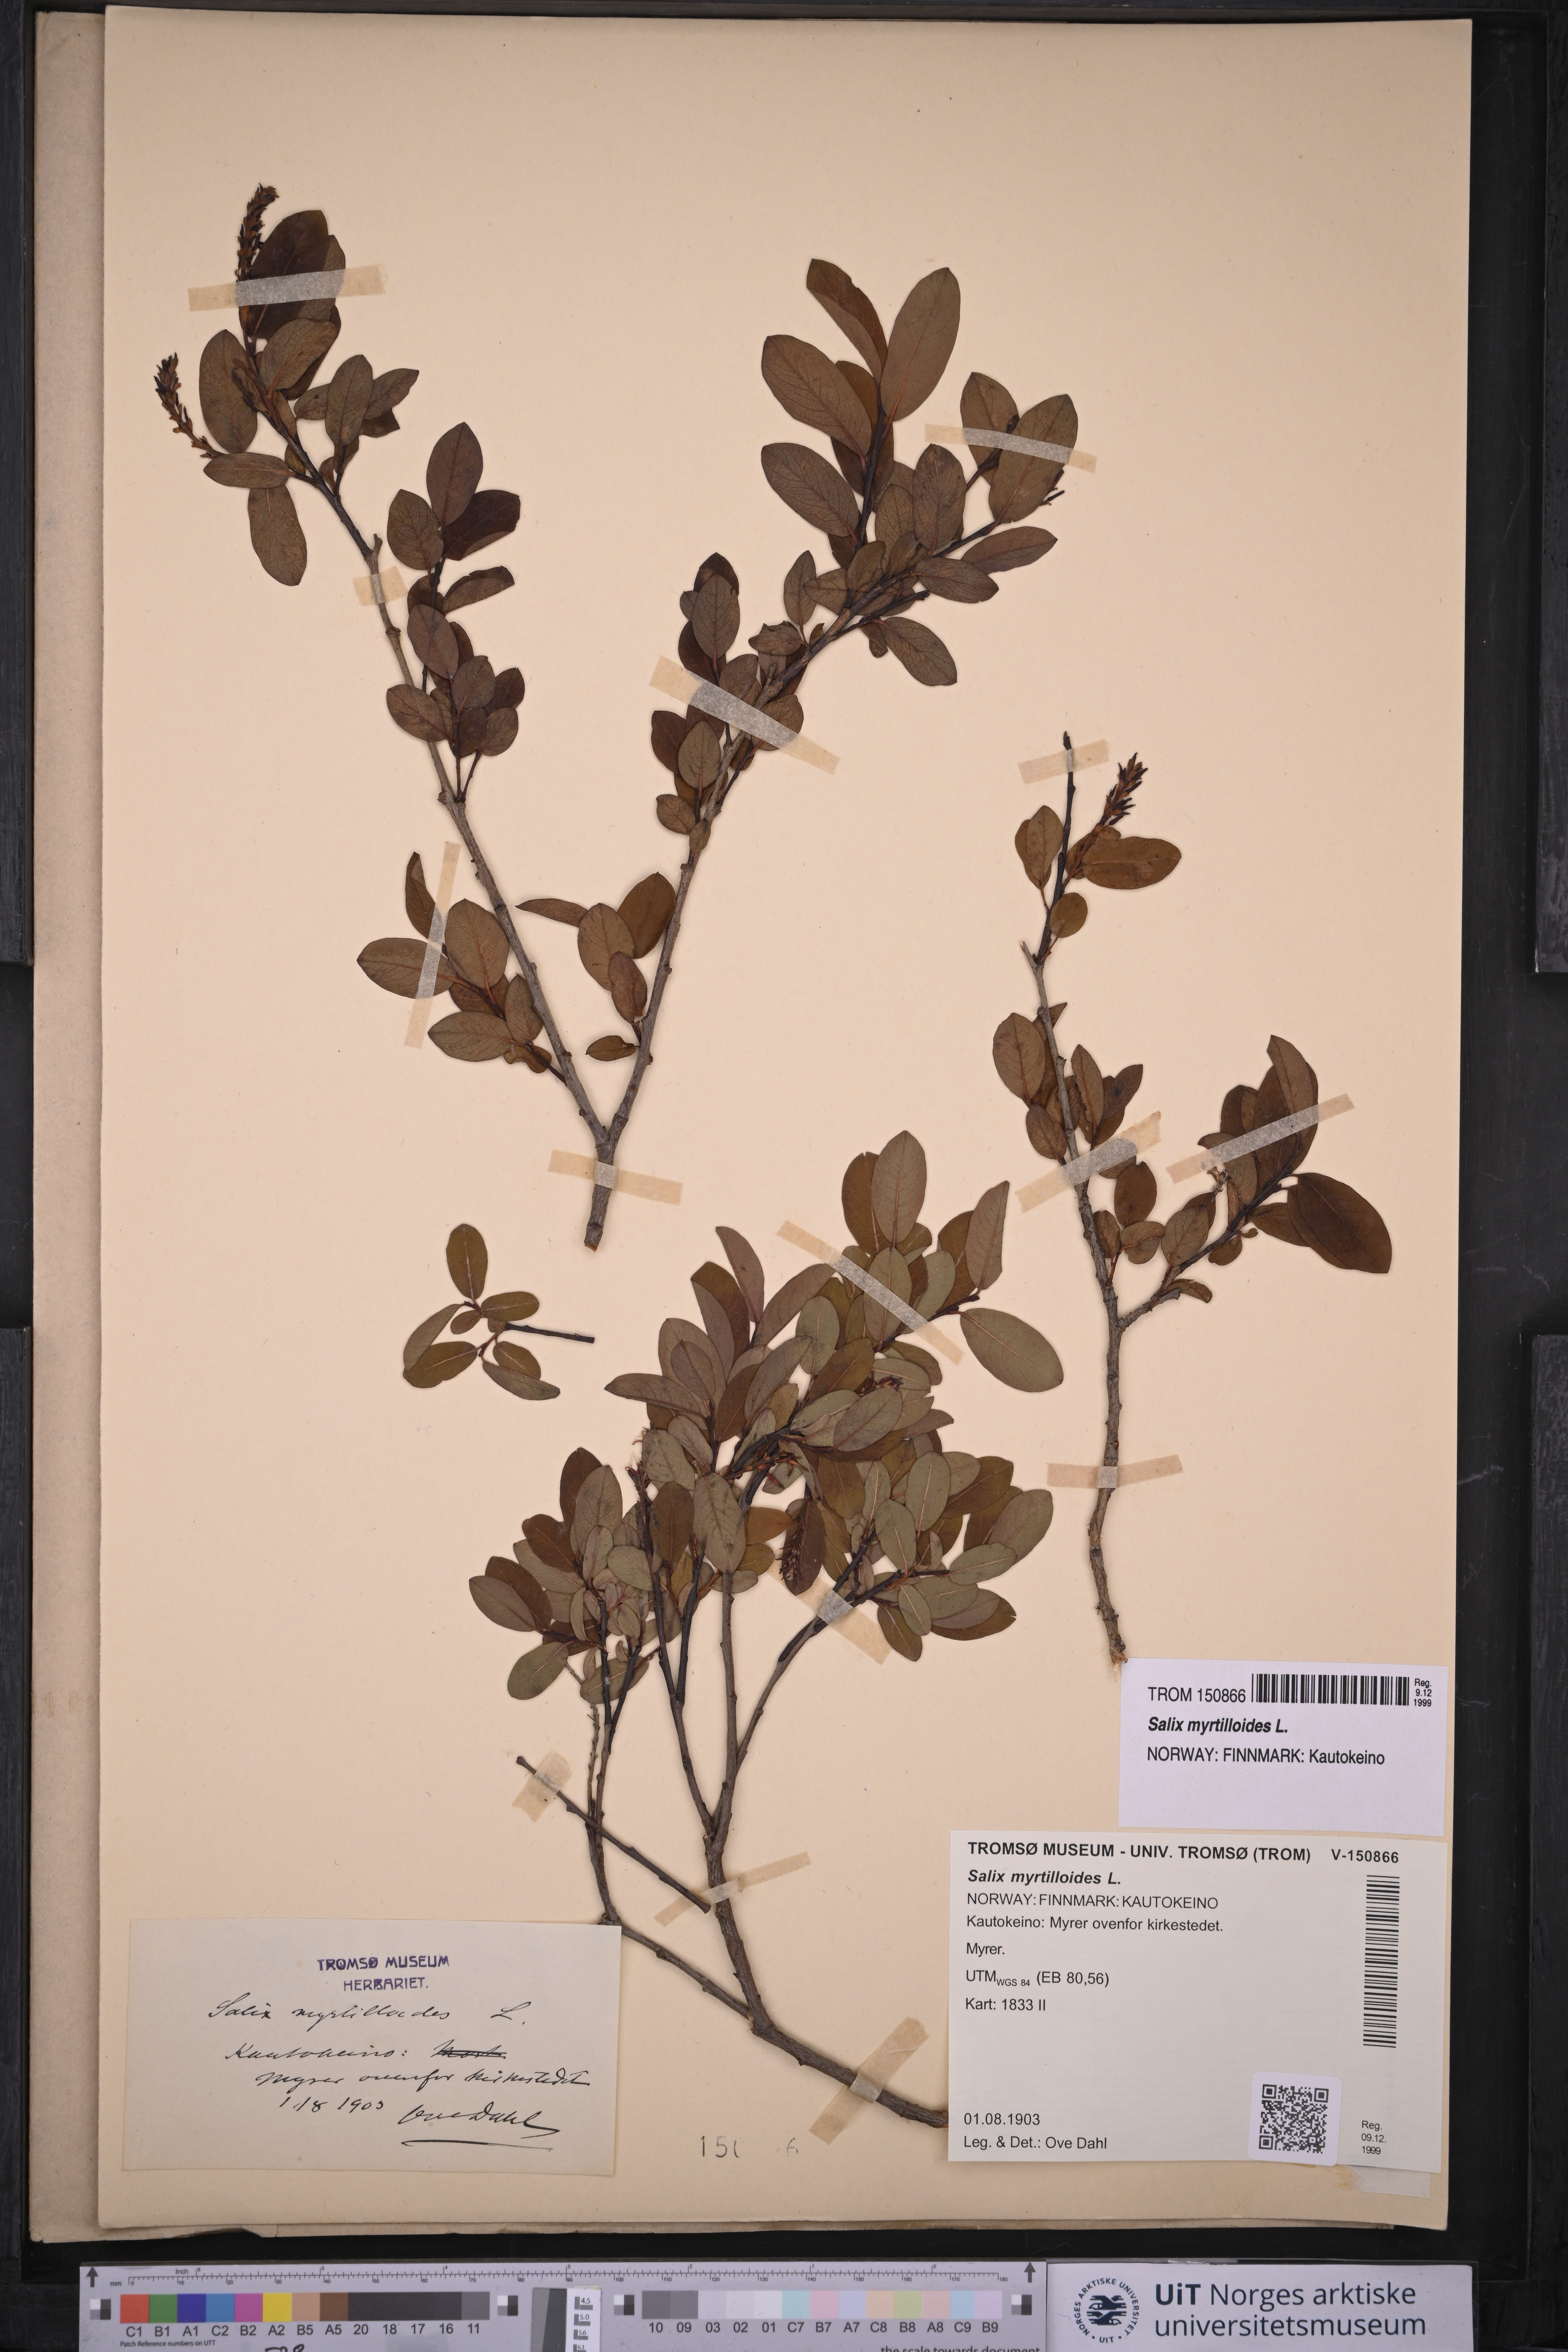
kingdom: Plantae
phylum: Tracheophyta
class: Magnoliopsida
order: Malpighiales
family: Salicaceae
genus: Salix
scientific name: Salix myrtilloides
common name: Myrtle-leaved willow
